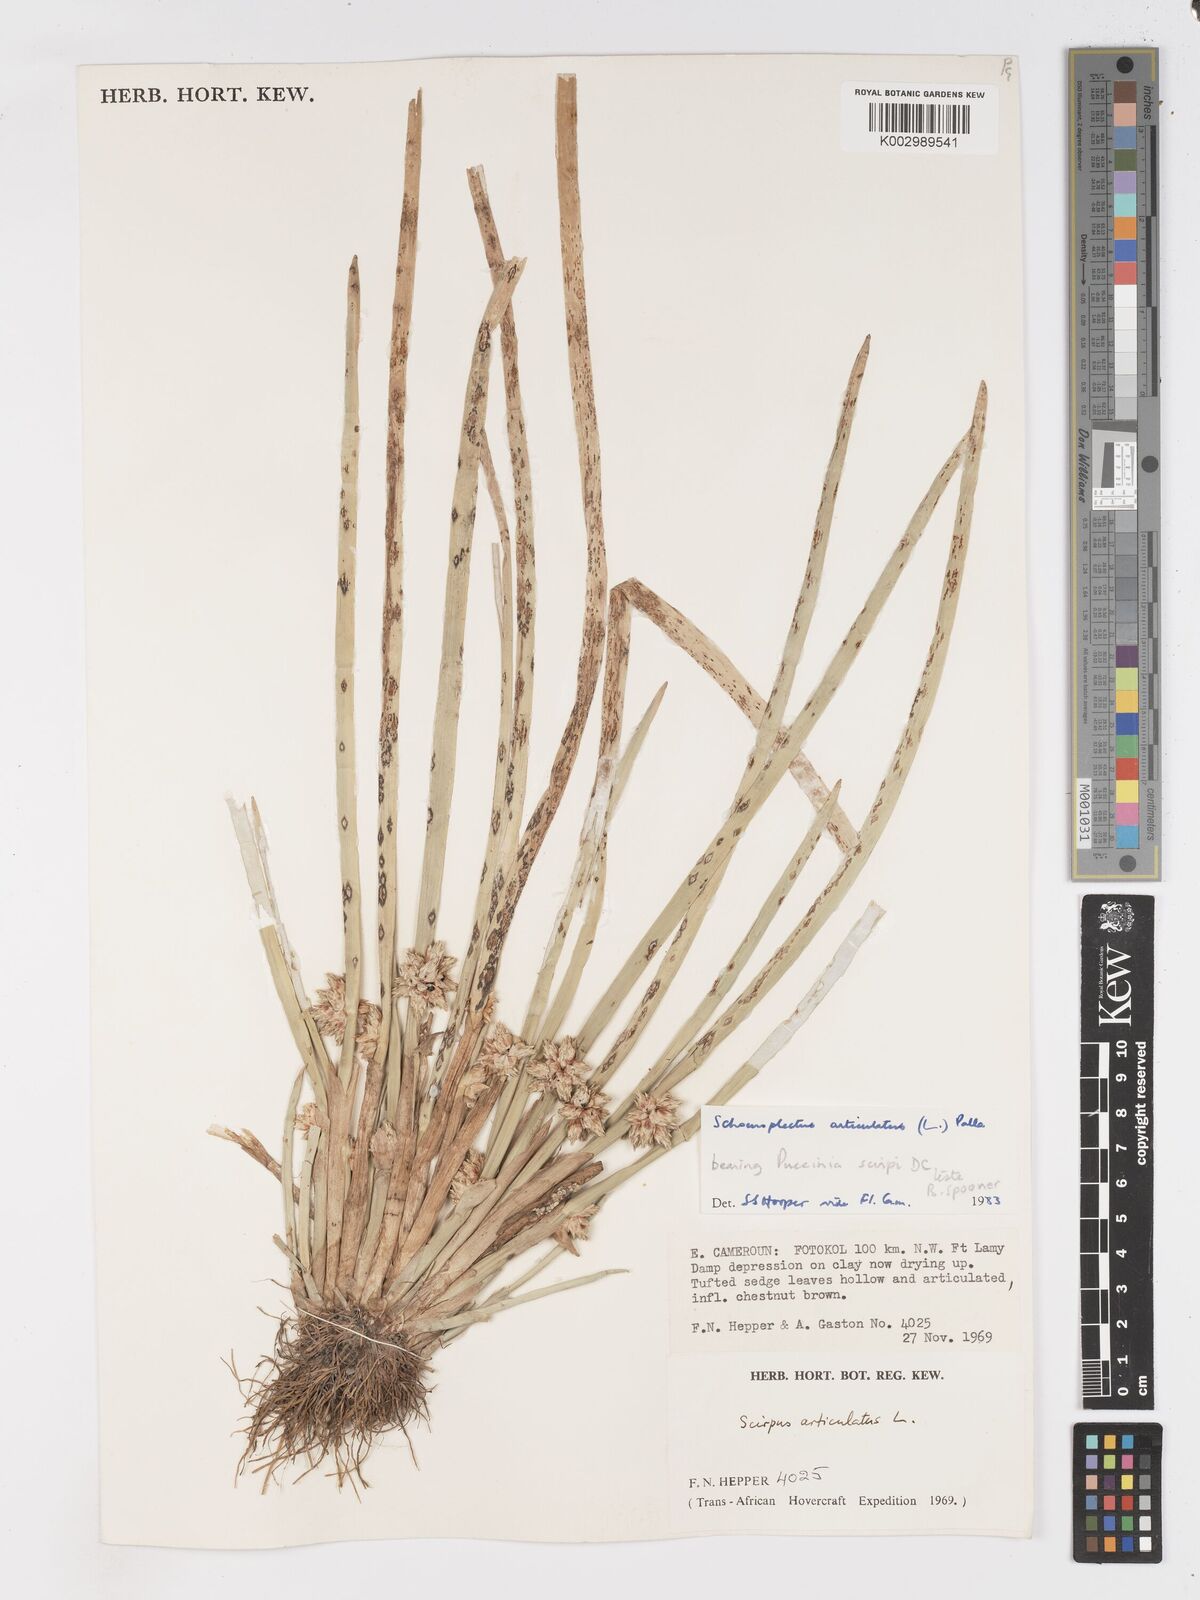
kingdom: Plantae
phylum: Tracheophyta
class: Liliopsida
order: Poales
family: Cyperaceae
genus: Schoenoplectiella
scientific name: Schoenoplectiella articulata
